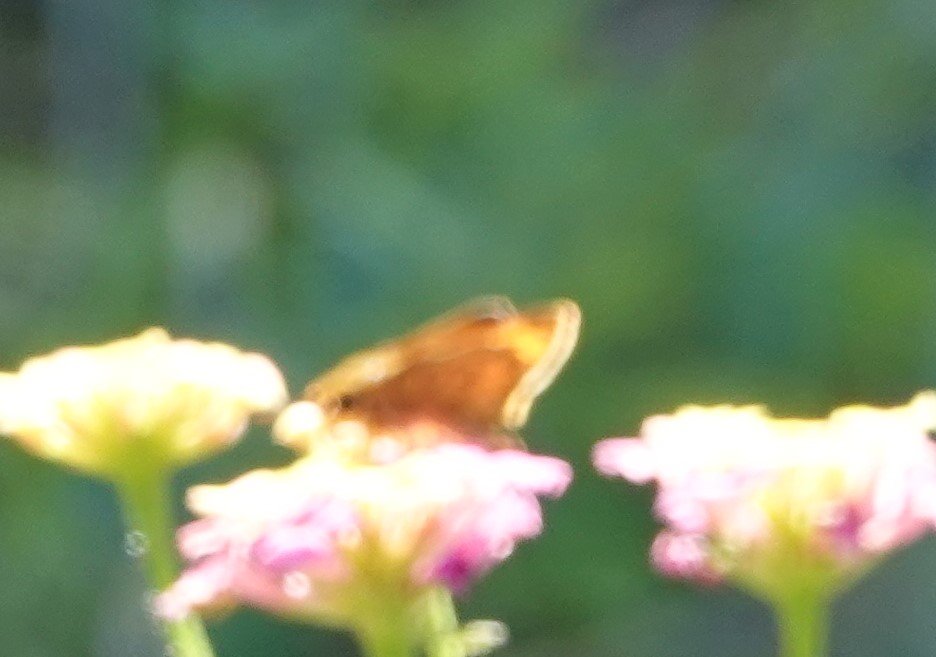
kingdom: Animalia
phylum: Arthropoda
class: Insecta
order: Lepidoptera
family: Hesperiidae
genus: Hylephila
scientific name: Hylephila phyleus
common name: Fiery Skipper
